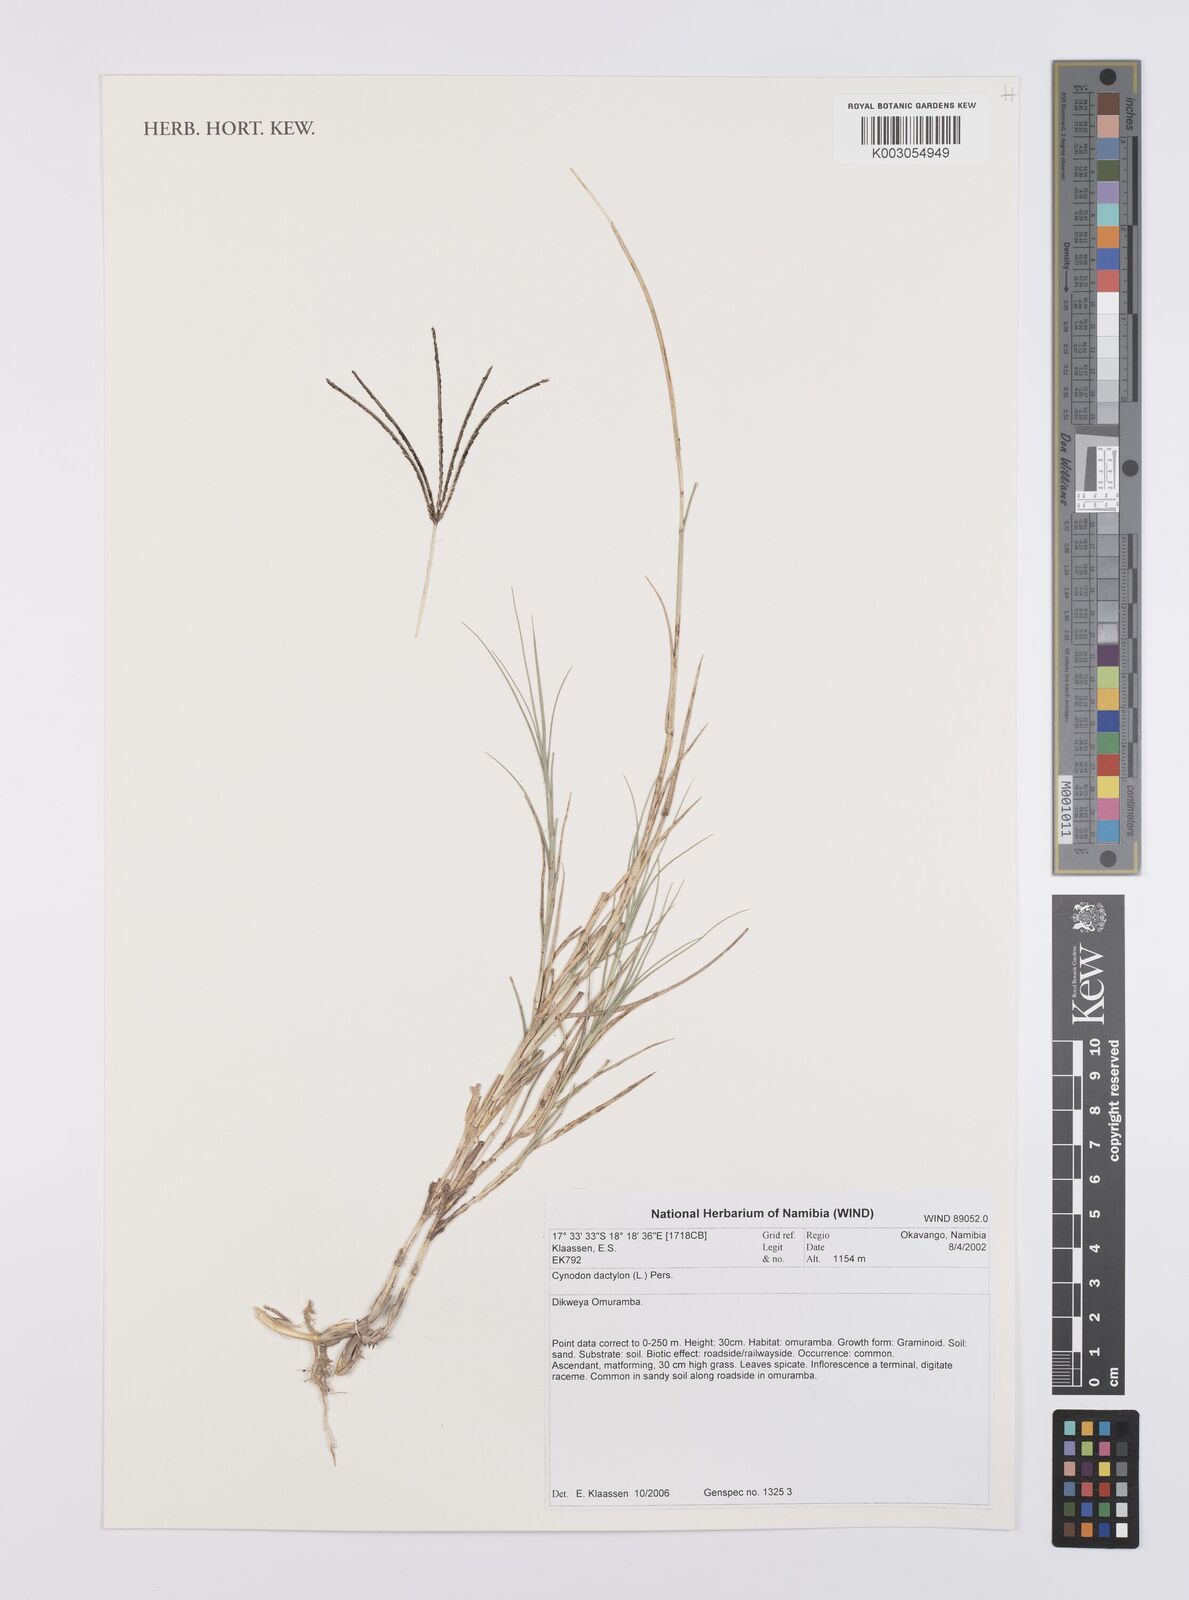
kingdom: Plantae
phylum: Tracheophyta
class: Liliopsida
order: Poales
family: Poaceae
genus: Cynodon
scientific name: Cynodon dactylon
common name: Bermuda grass
